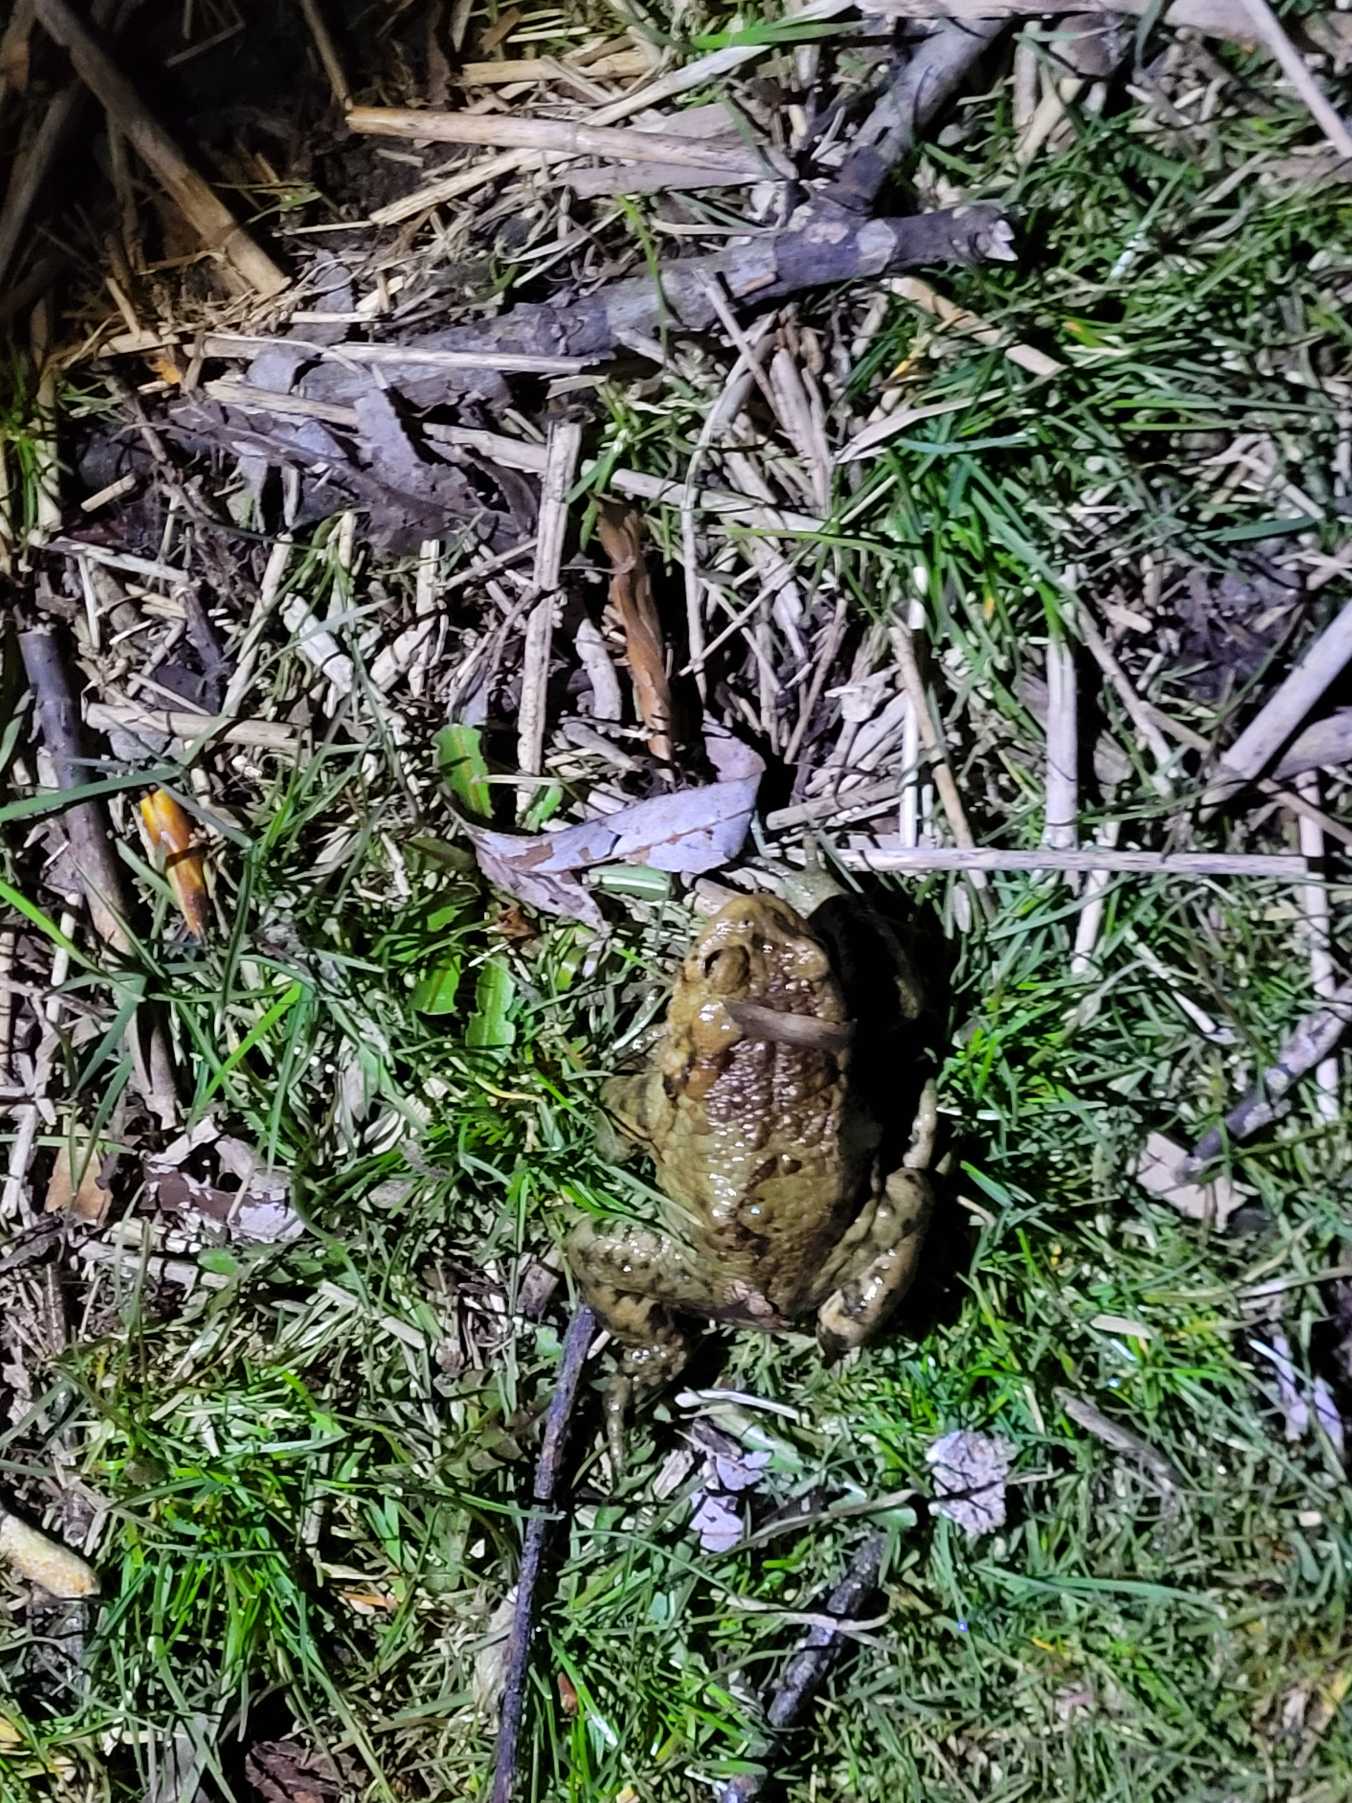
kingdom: Animalia
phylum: Chordata
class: Amphibia
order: Anura
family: Bufonidae
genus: Bufo
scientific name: Bufo bufo
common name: Skrubtudse
